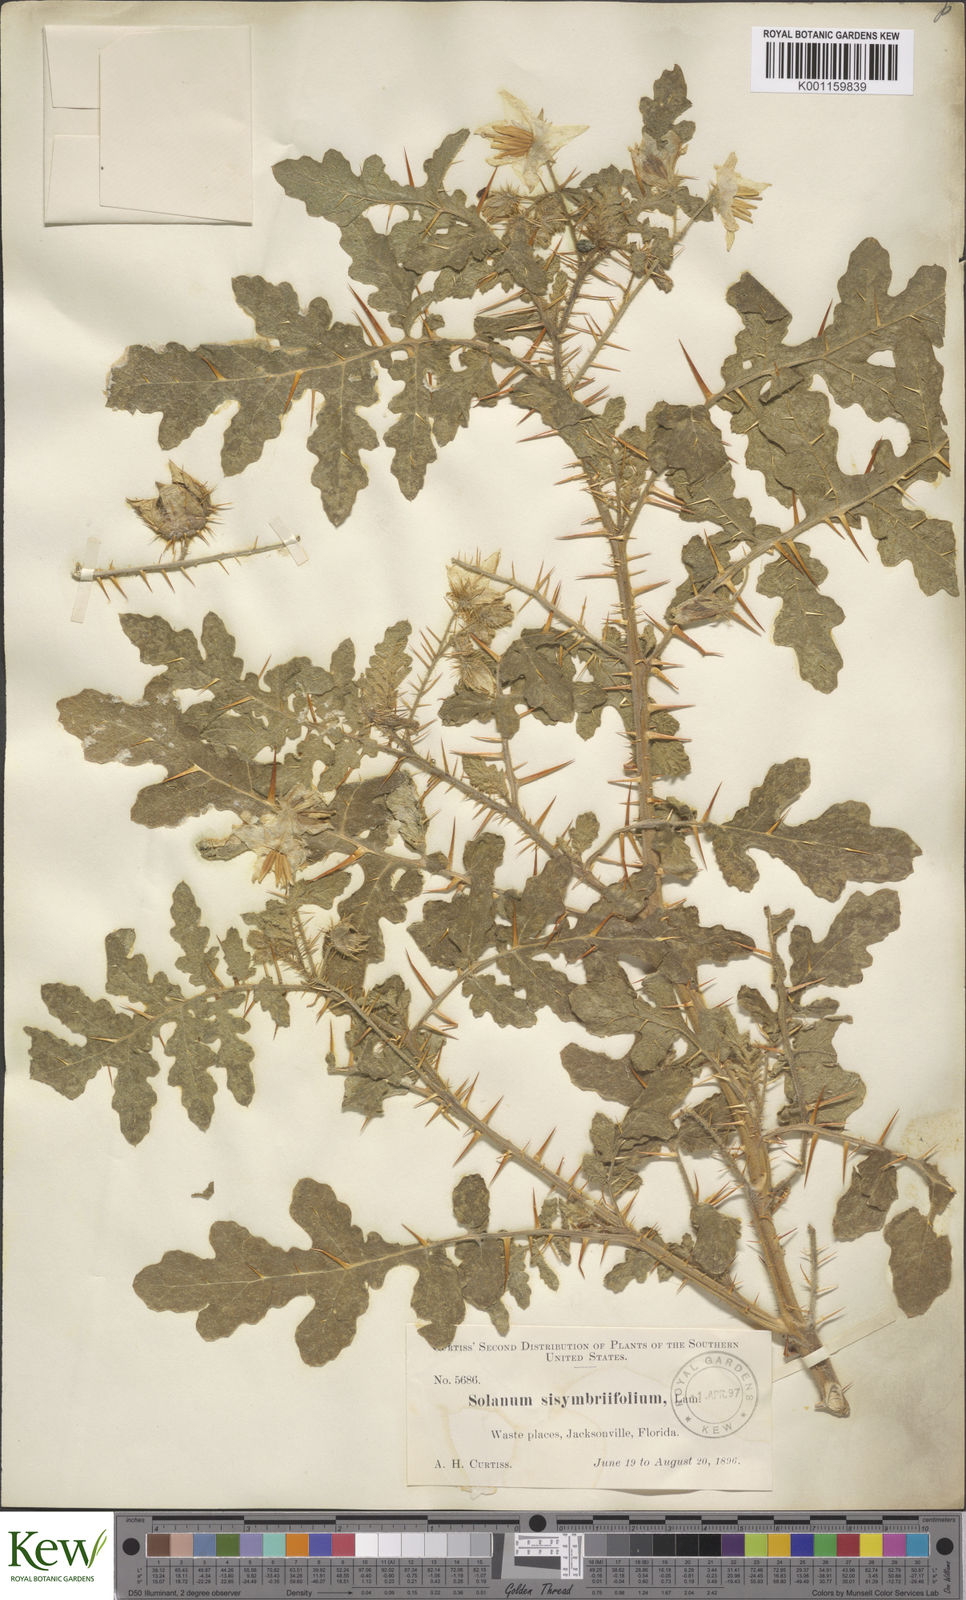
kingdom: Plantae
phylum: Tracheophyta
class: Magnoliopsida
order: Solanales
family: Solanaceae
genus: Solanum
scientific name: Solanum sisymbriifolium
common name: Red buffalo-bur
